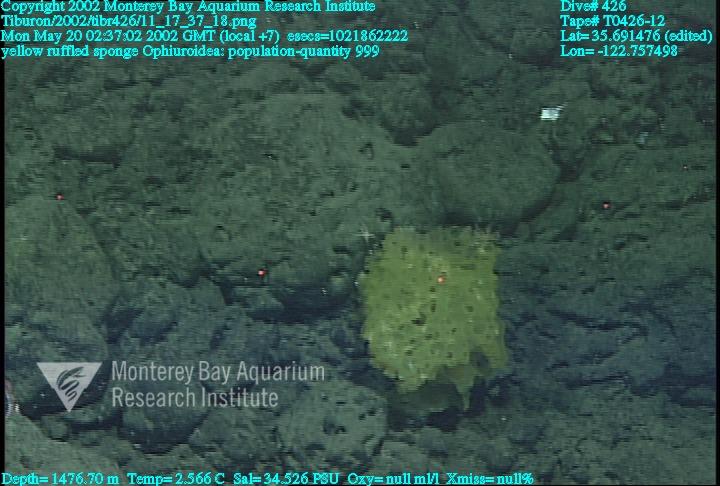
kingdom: Animalia
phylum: Porifera
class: Hexactinellida
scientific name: Hexactinellida
